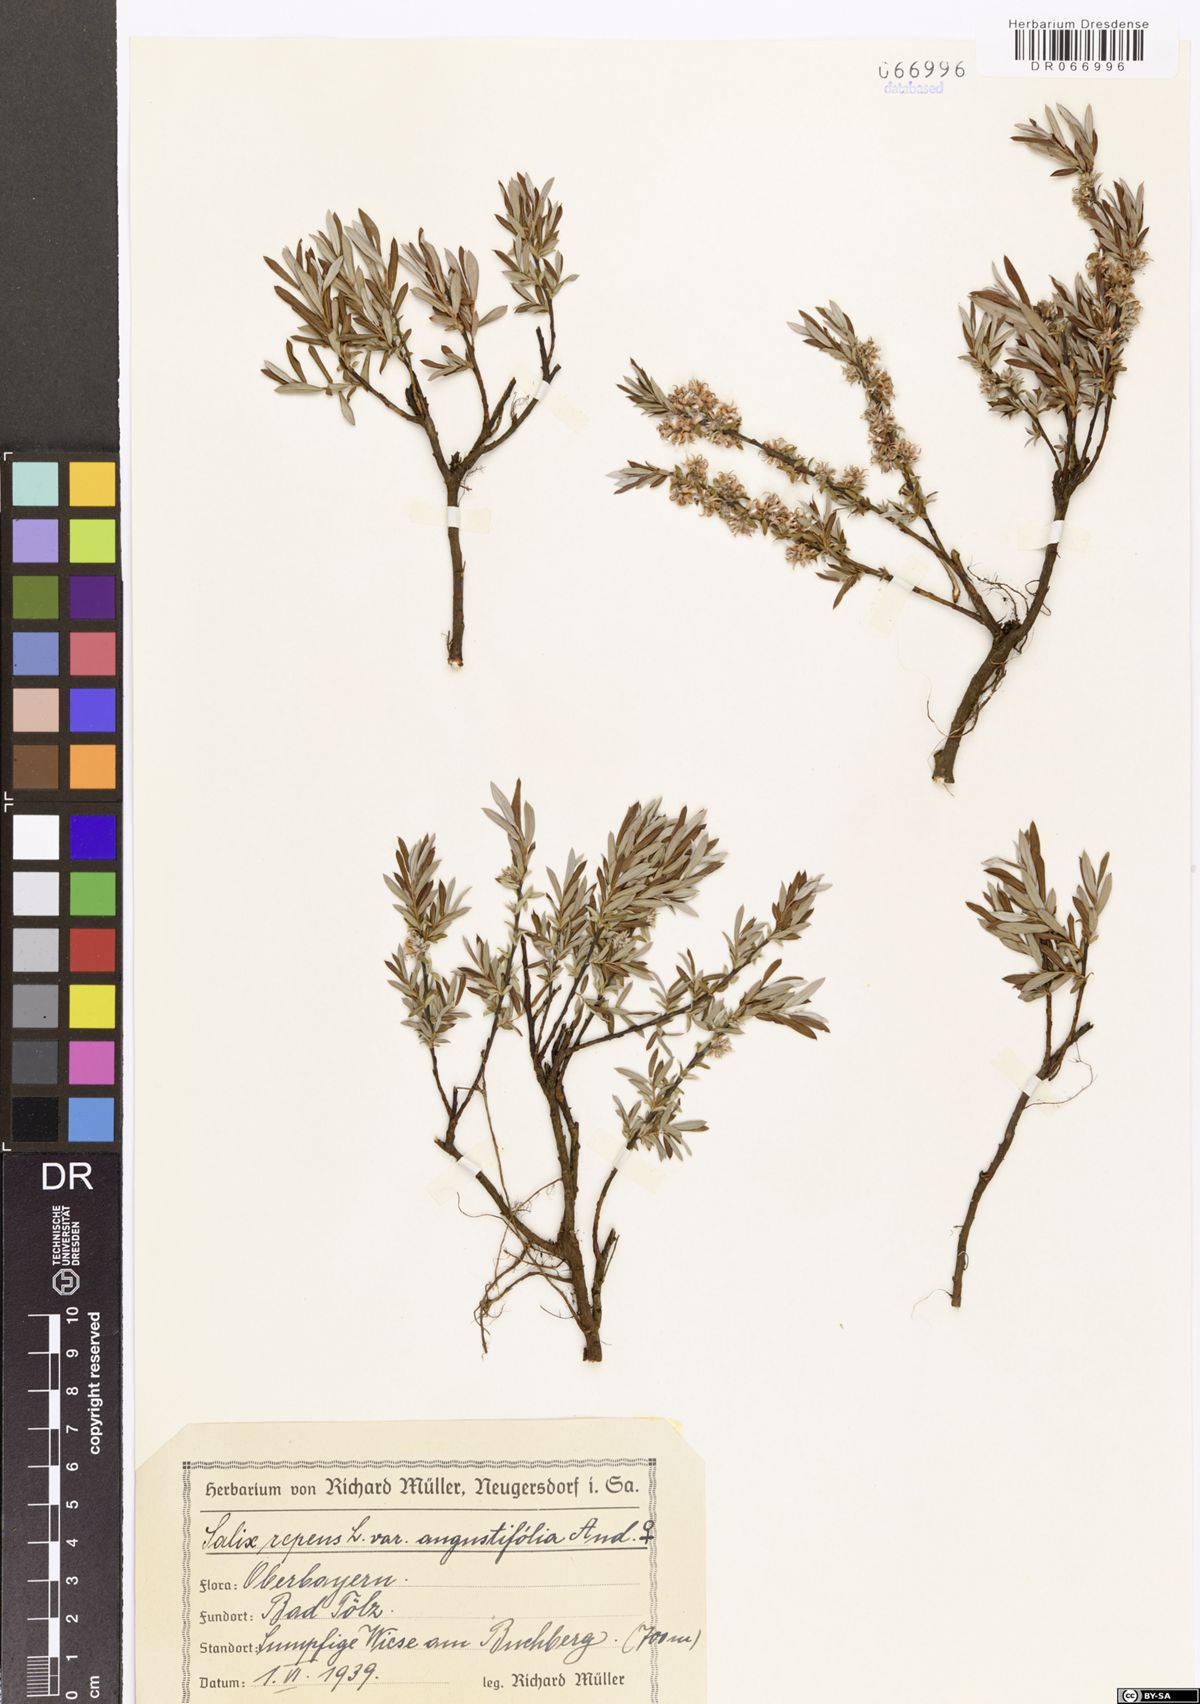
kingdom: Plantae
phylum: Tracheophyta
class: Magnoliopsida
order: Malpighiales
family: Salicaceae
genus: Salix
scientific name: Salix repens
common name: Creeping willow
